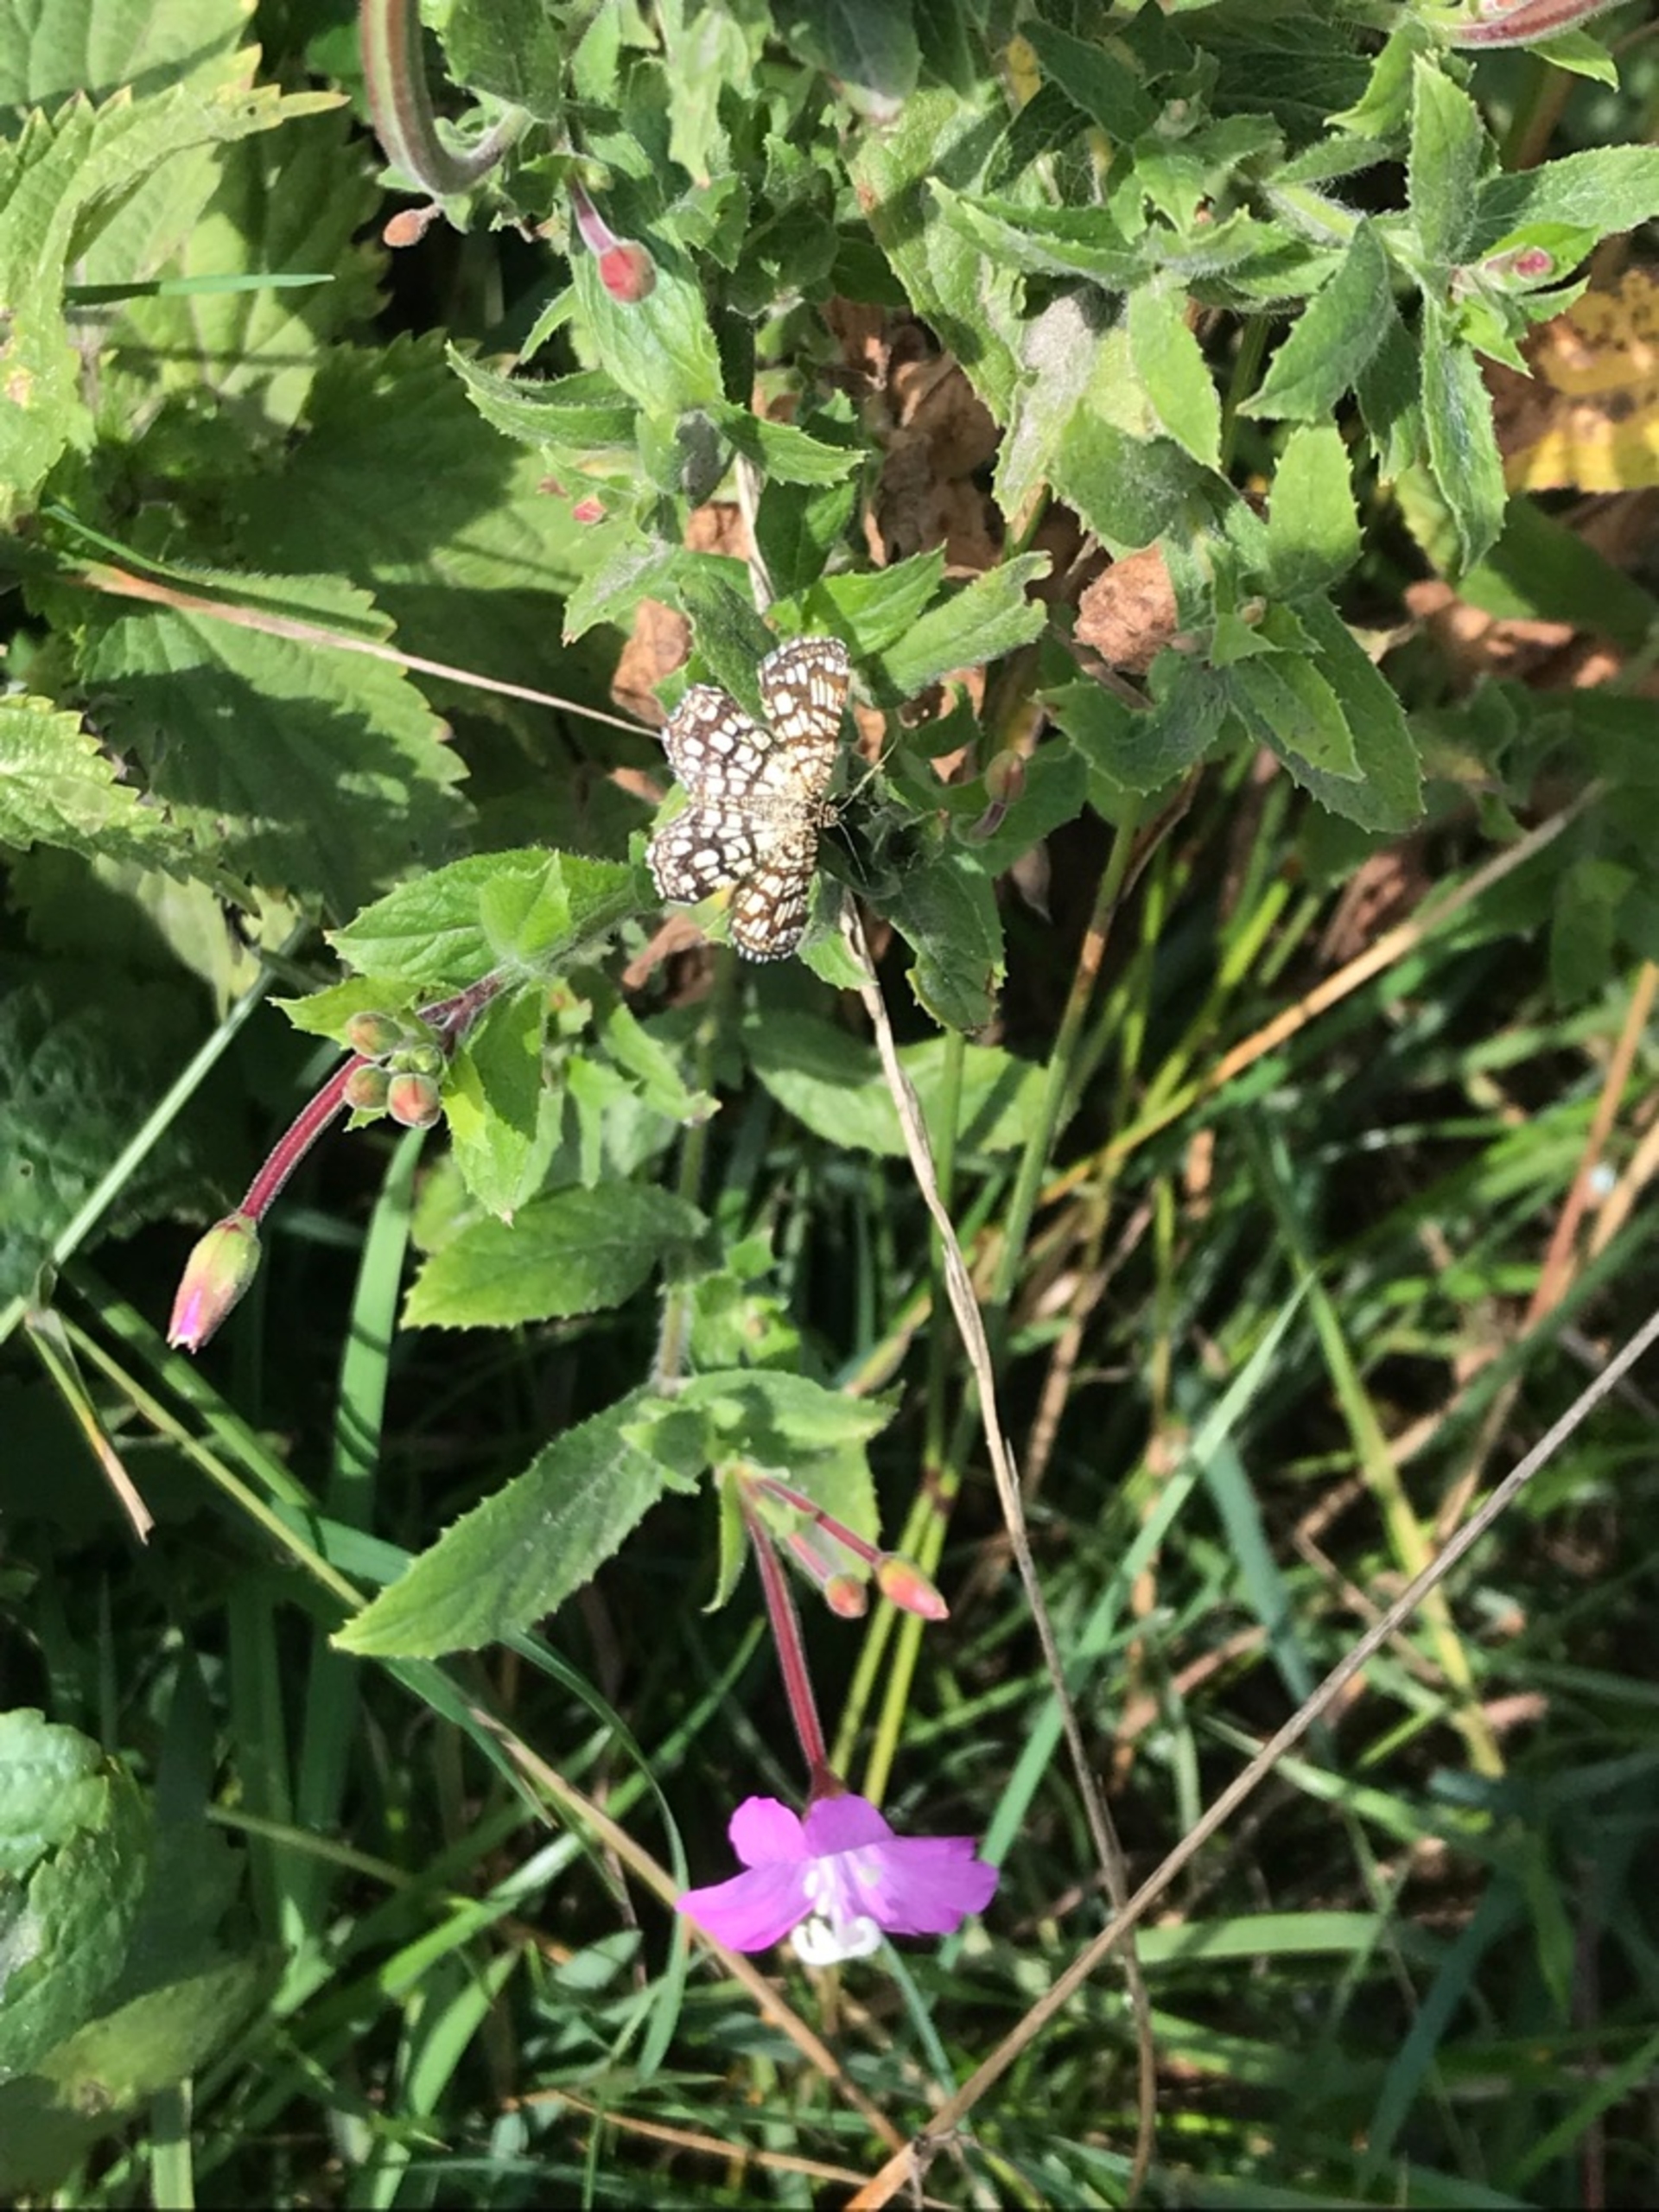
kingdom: Animalia
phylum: Arthropoda
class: Insecta
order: Lepidoptera
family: Geometridae
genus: Chiasmia
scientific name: Chiasmia clathrata
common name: Kløvermåler
